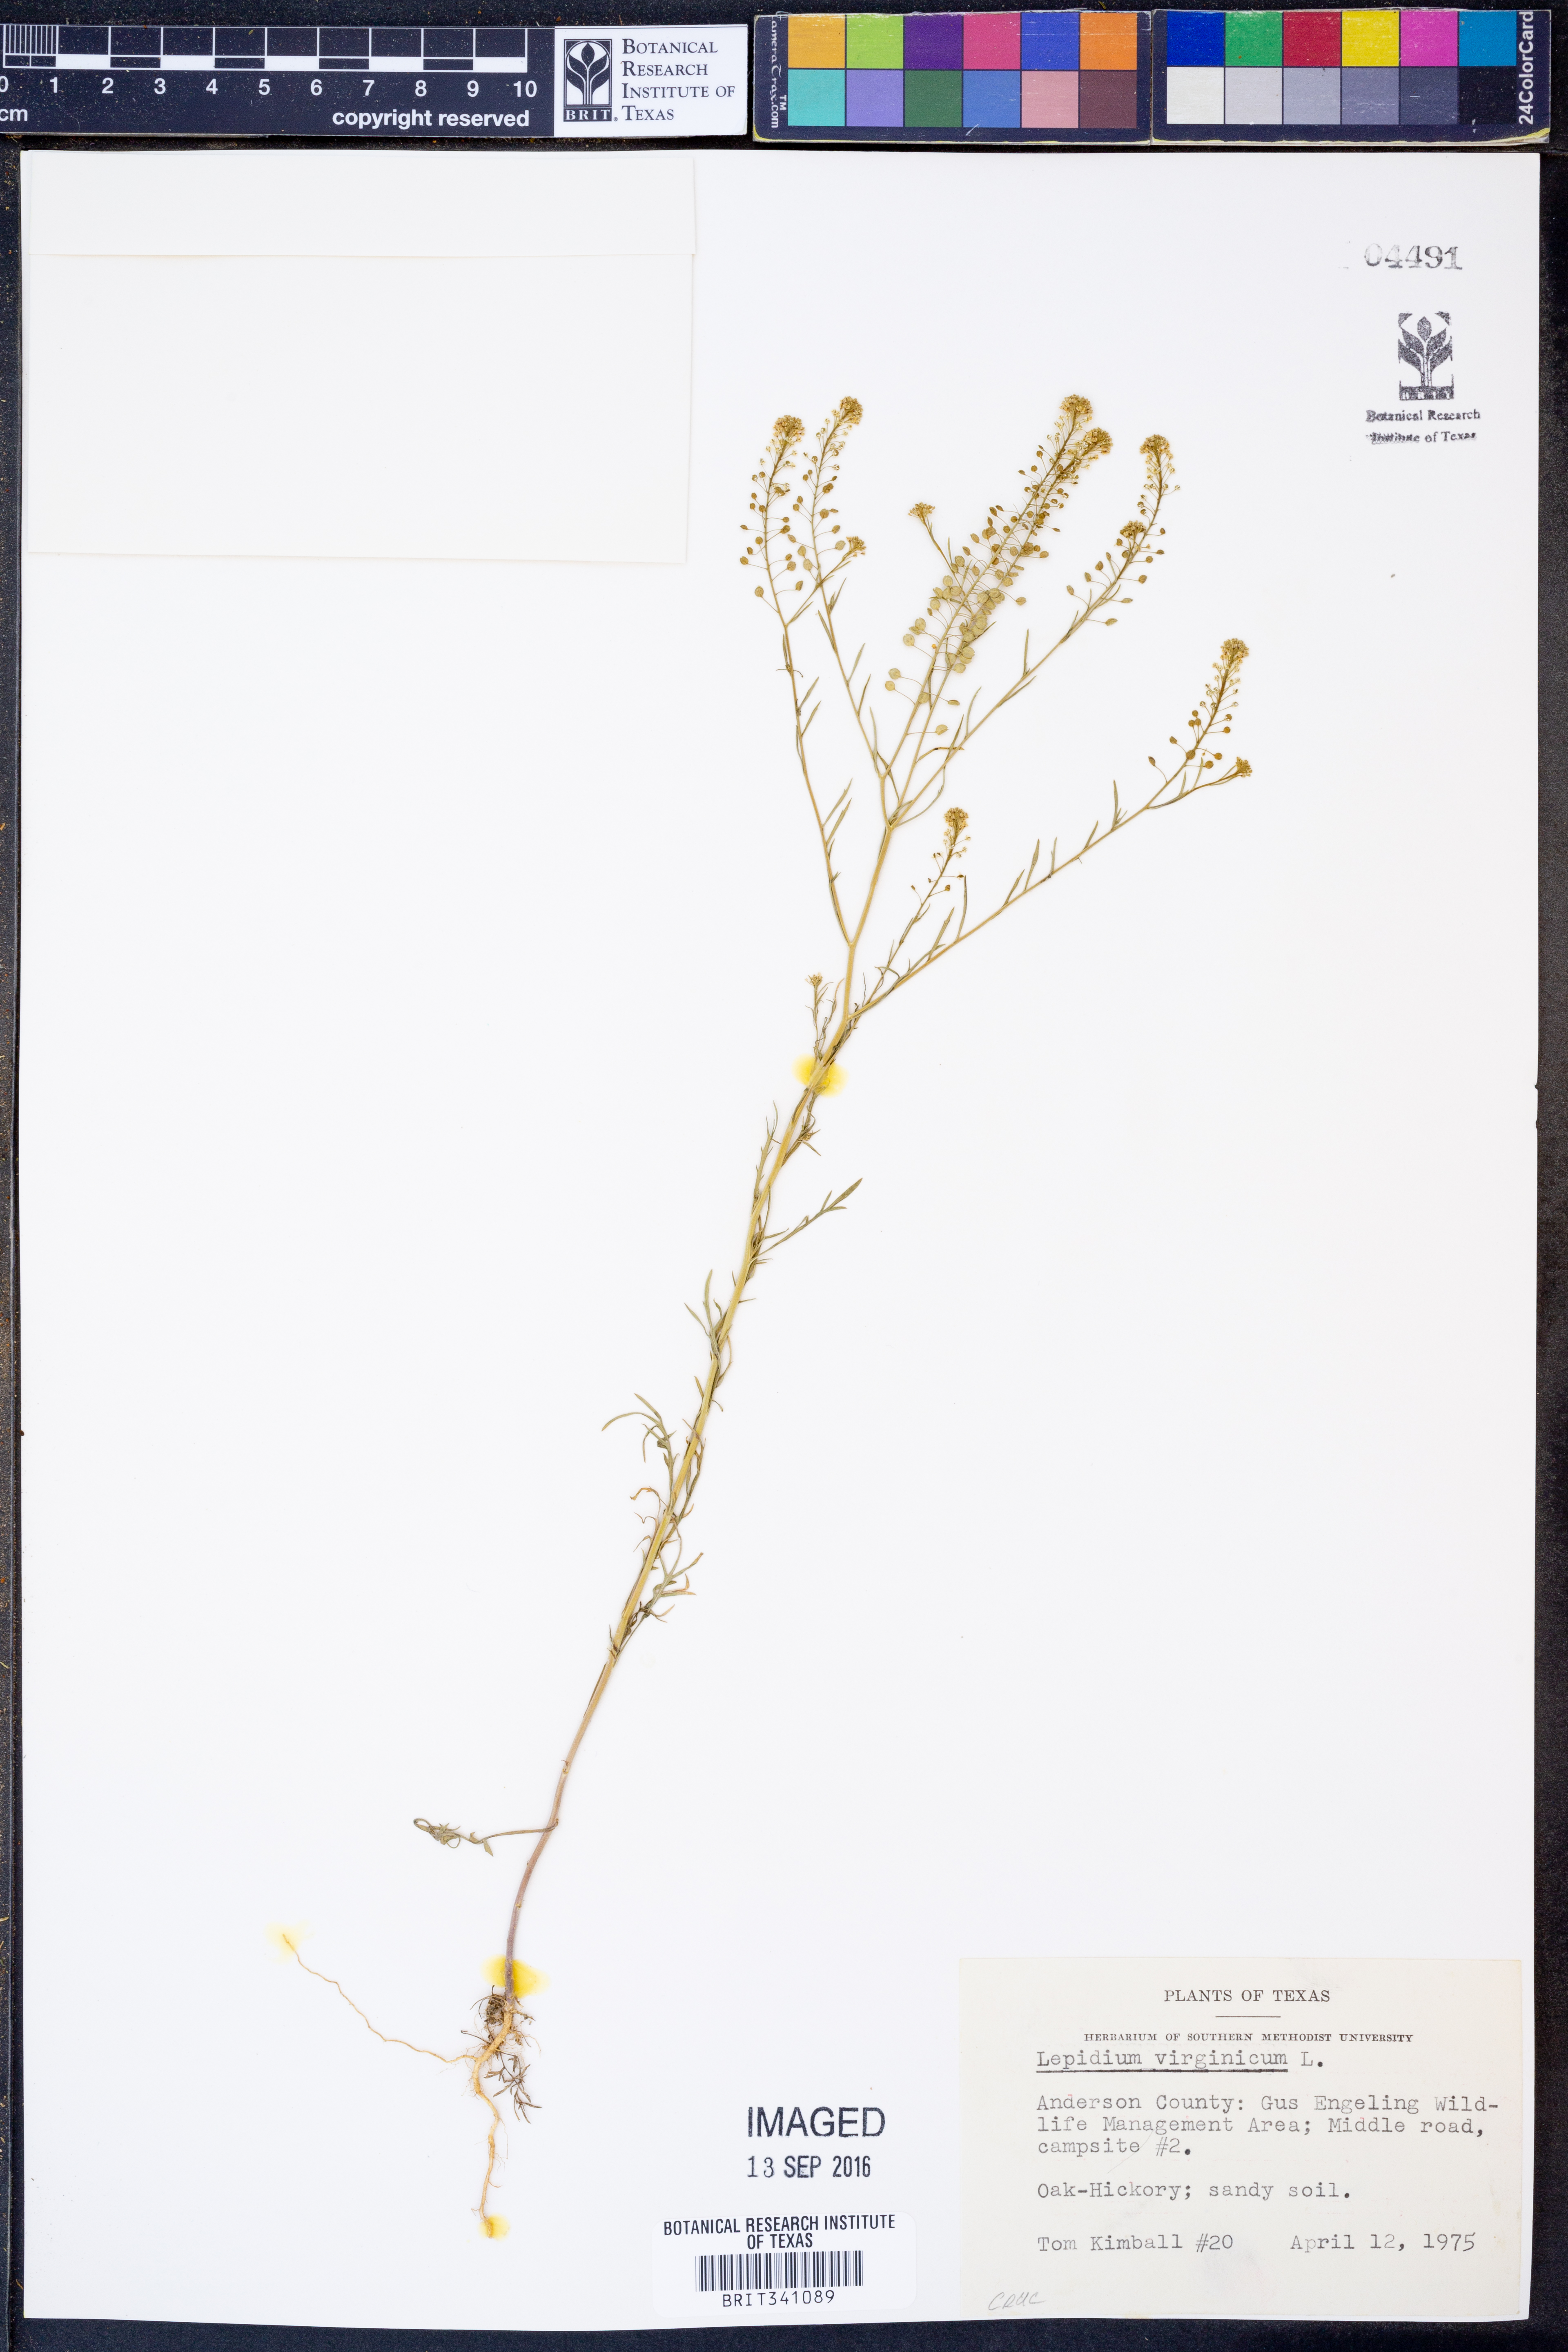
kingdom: Plantae
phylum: Tracheophyta
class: Magnoliopsida
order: Brassicales
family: Brassicaceae
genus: Lepidium
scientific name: Lepidium virginicum
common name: Least pepperwort
